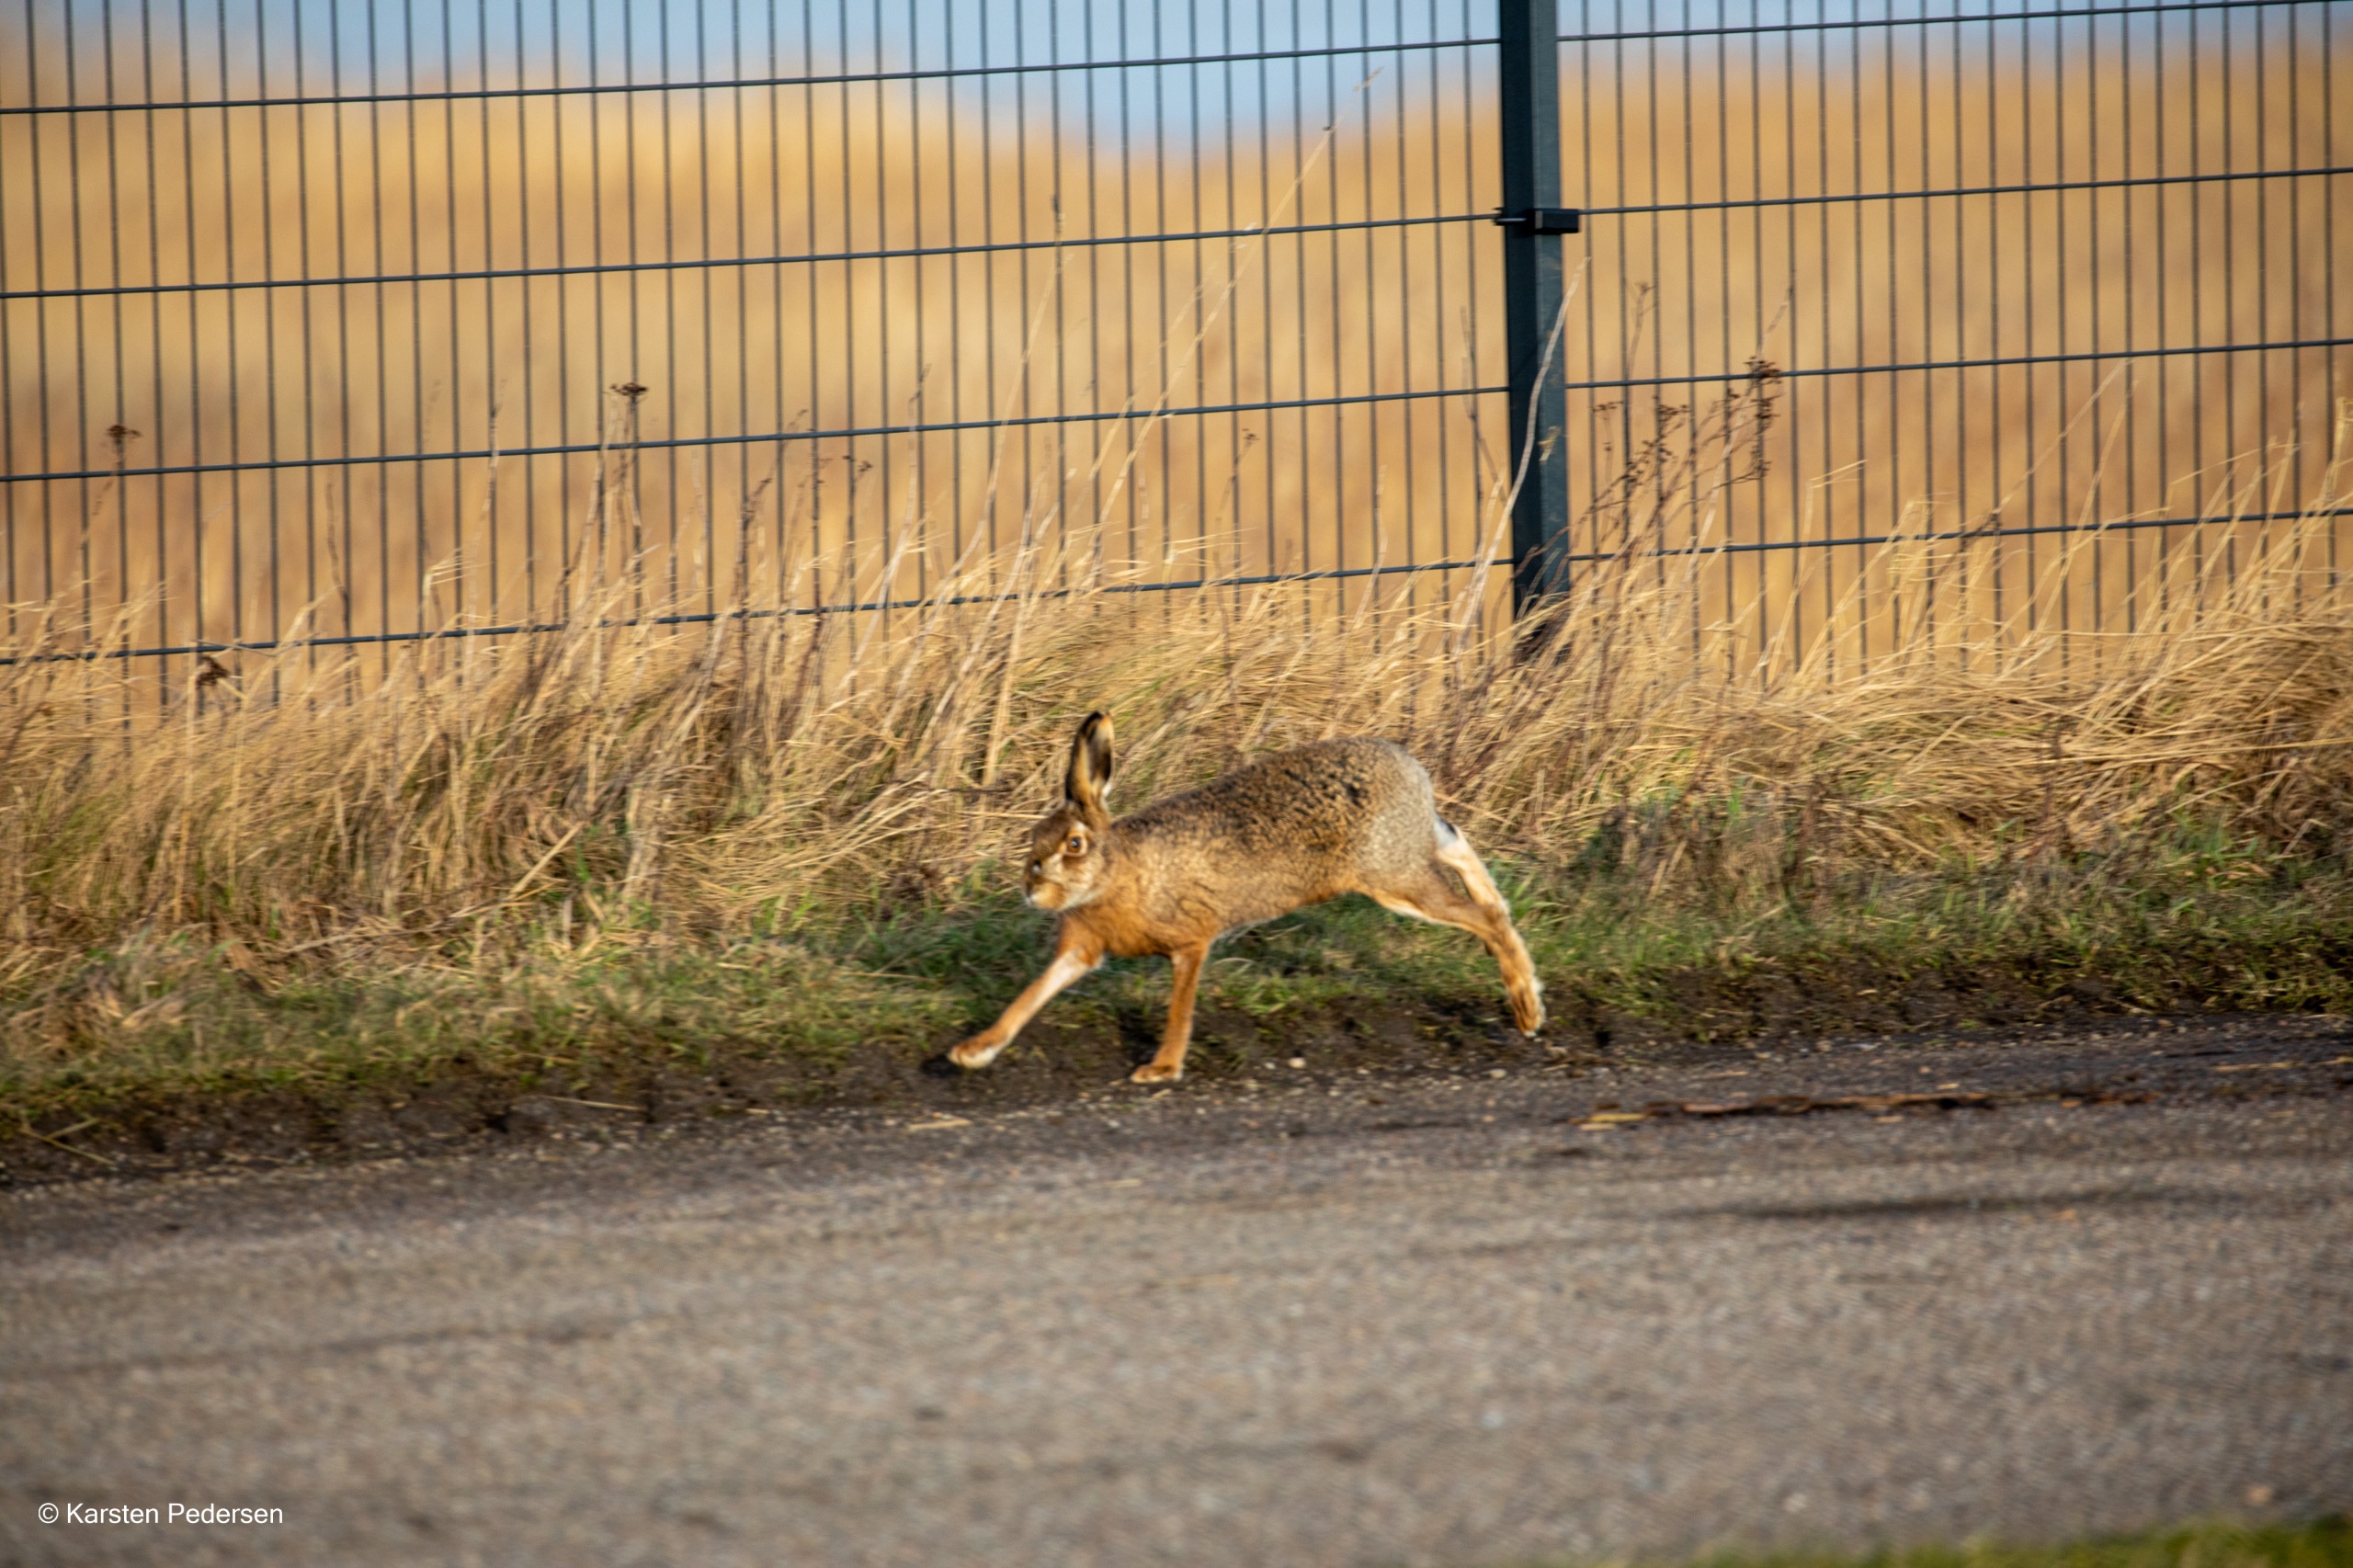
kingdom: Animalia
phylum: Chordata
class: Mammalia
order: Lagomorpha
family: Leporidae
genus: Lepus
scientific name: Lepus europaeus
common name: Hare
